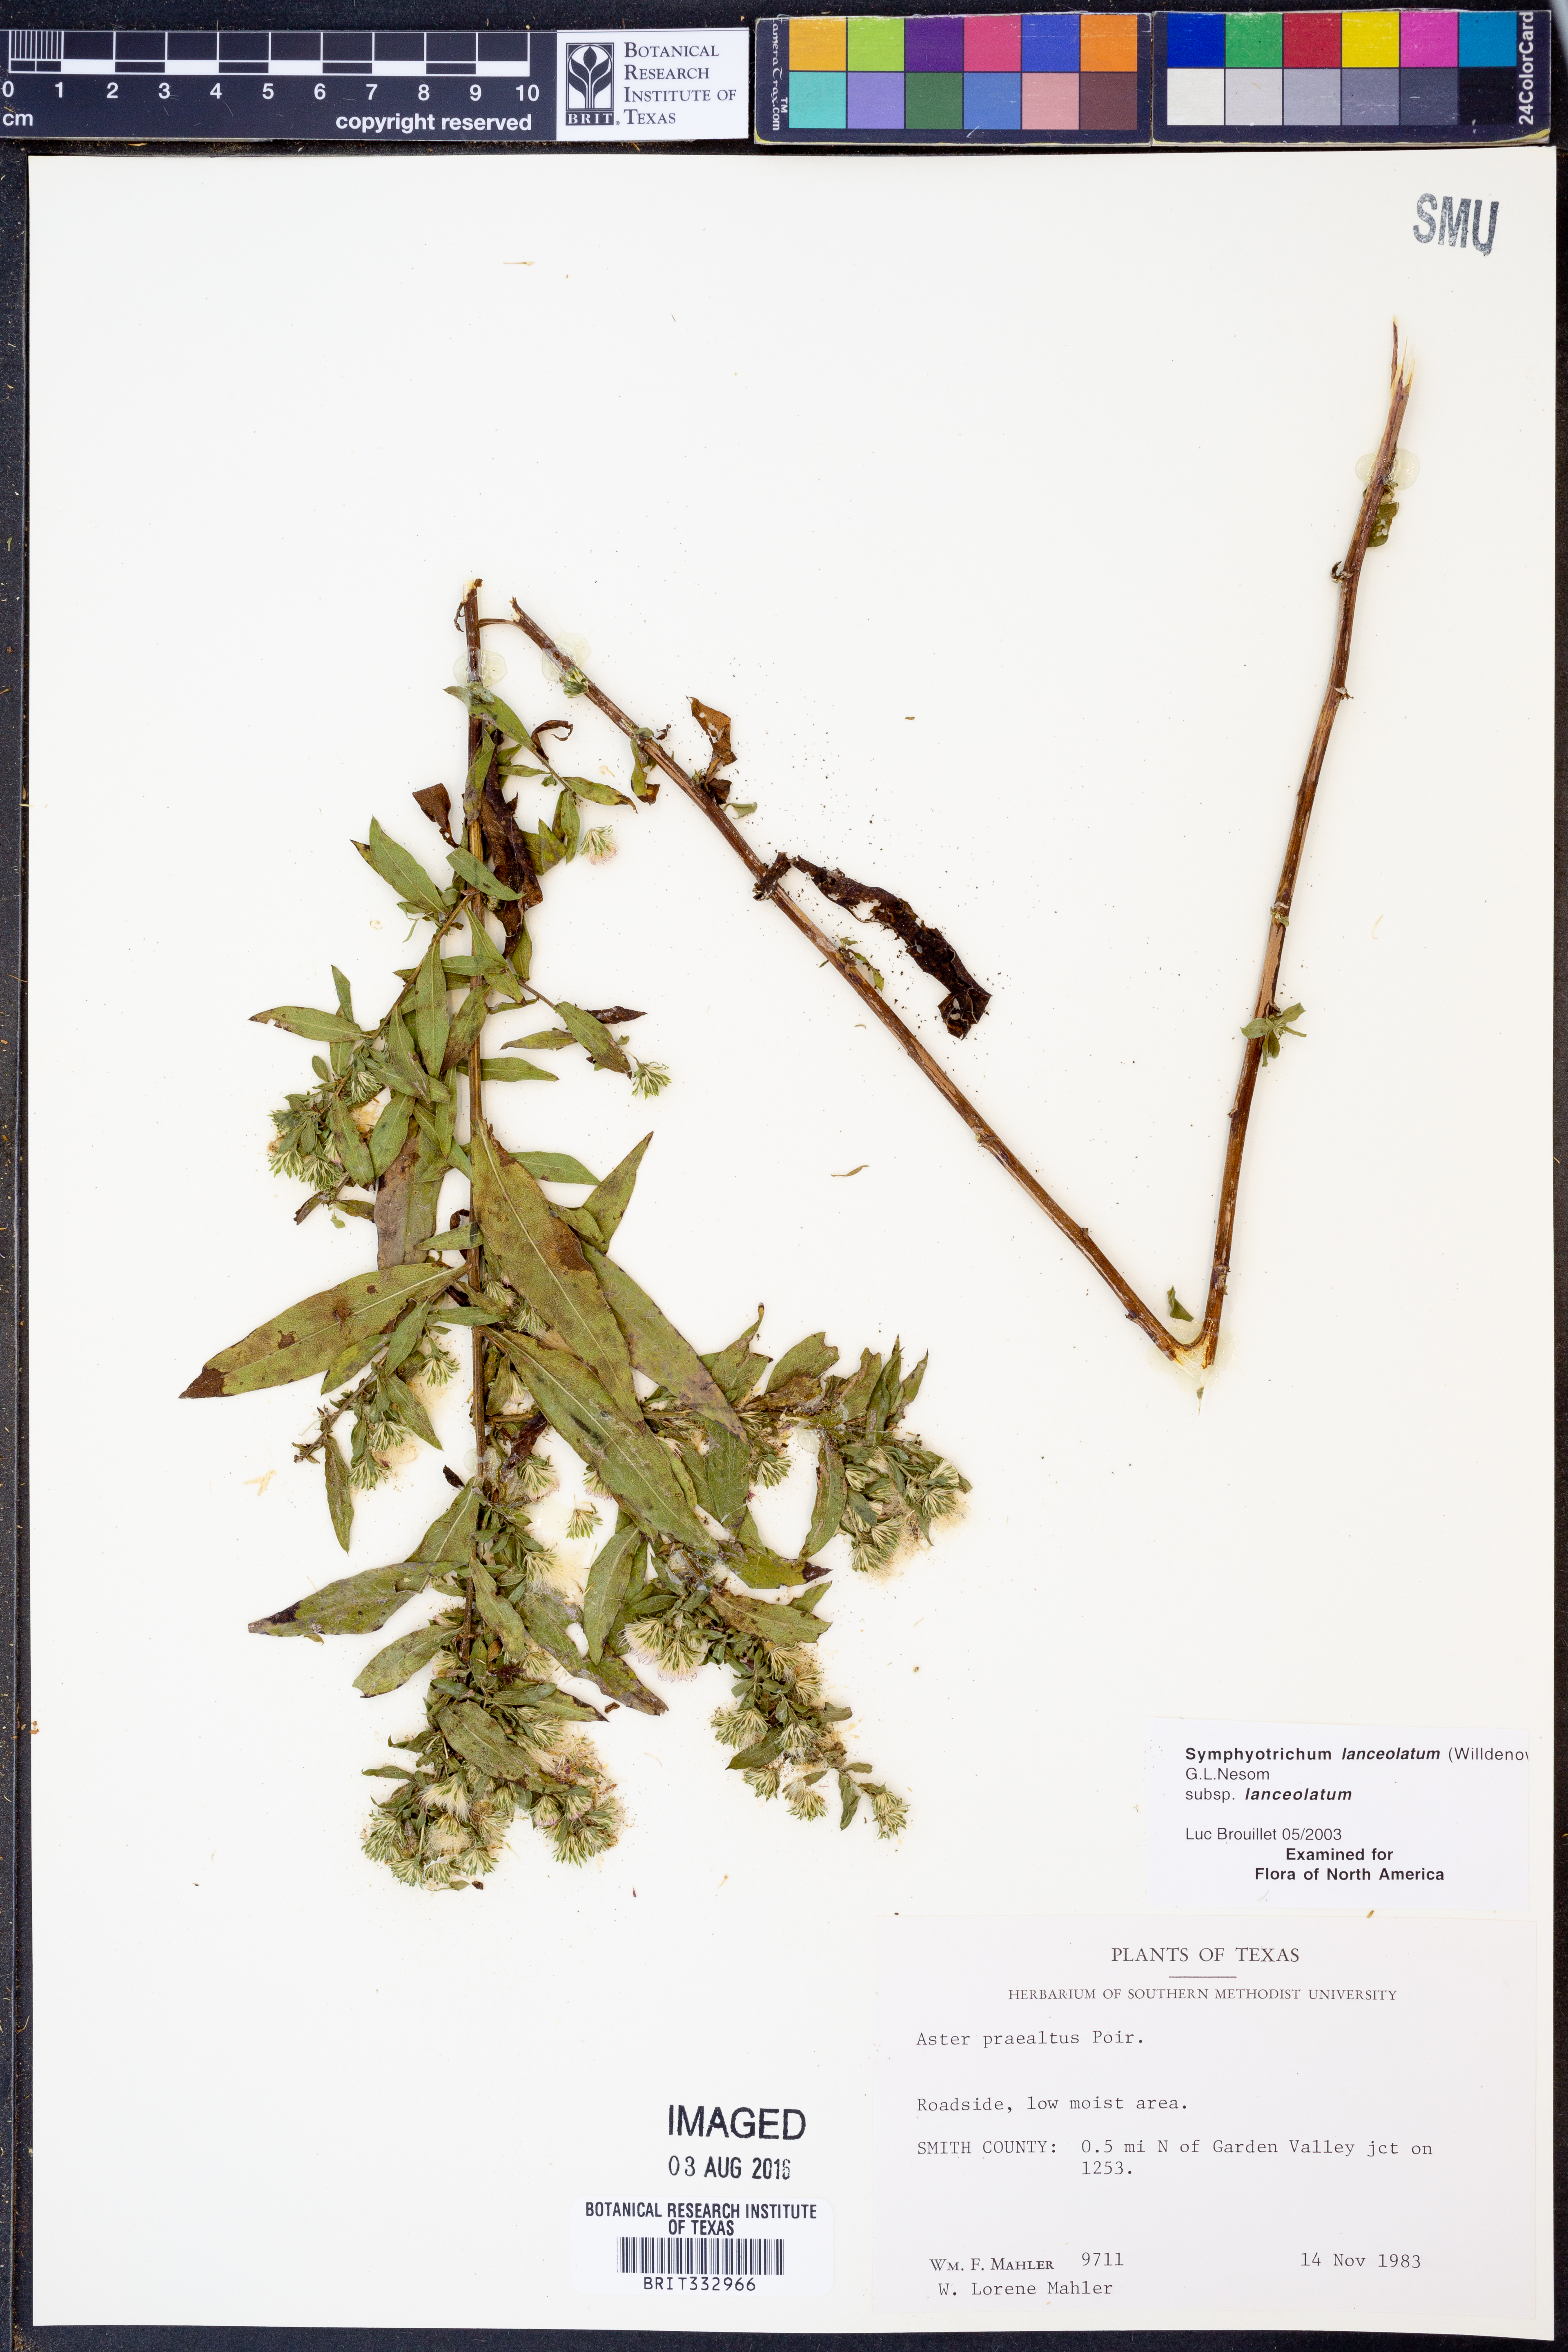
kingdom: Plantae
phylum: Tracheophyta
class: Magnoliopsida
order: Asterales
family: Asteraceae
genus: Symphyotrichum
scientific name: Symphyotrichum lanceolatum
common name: Panicled aster
